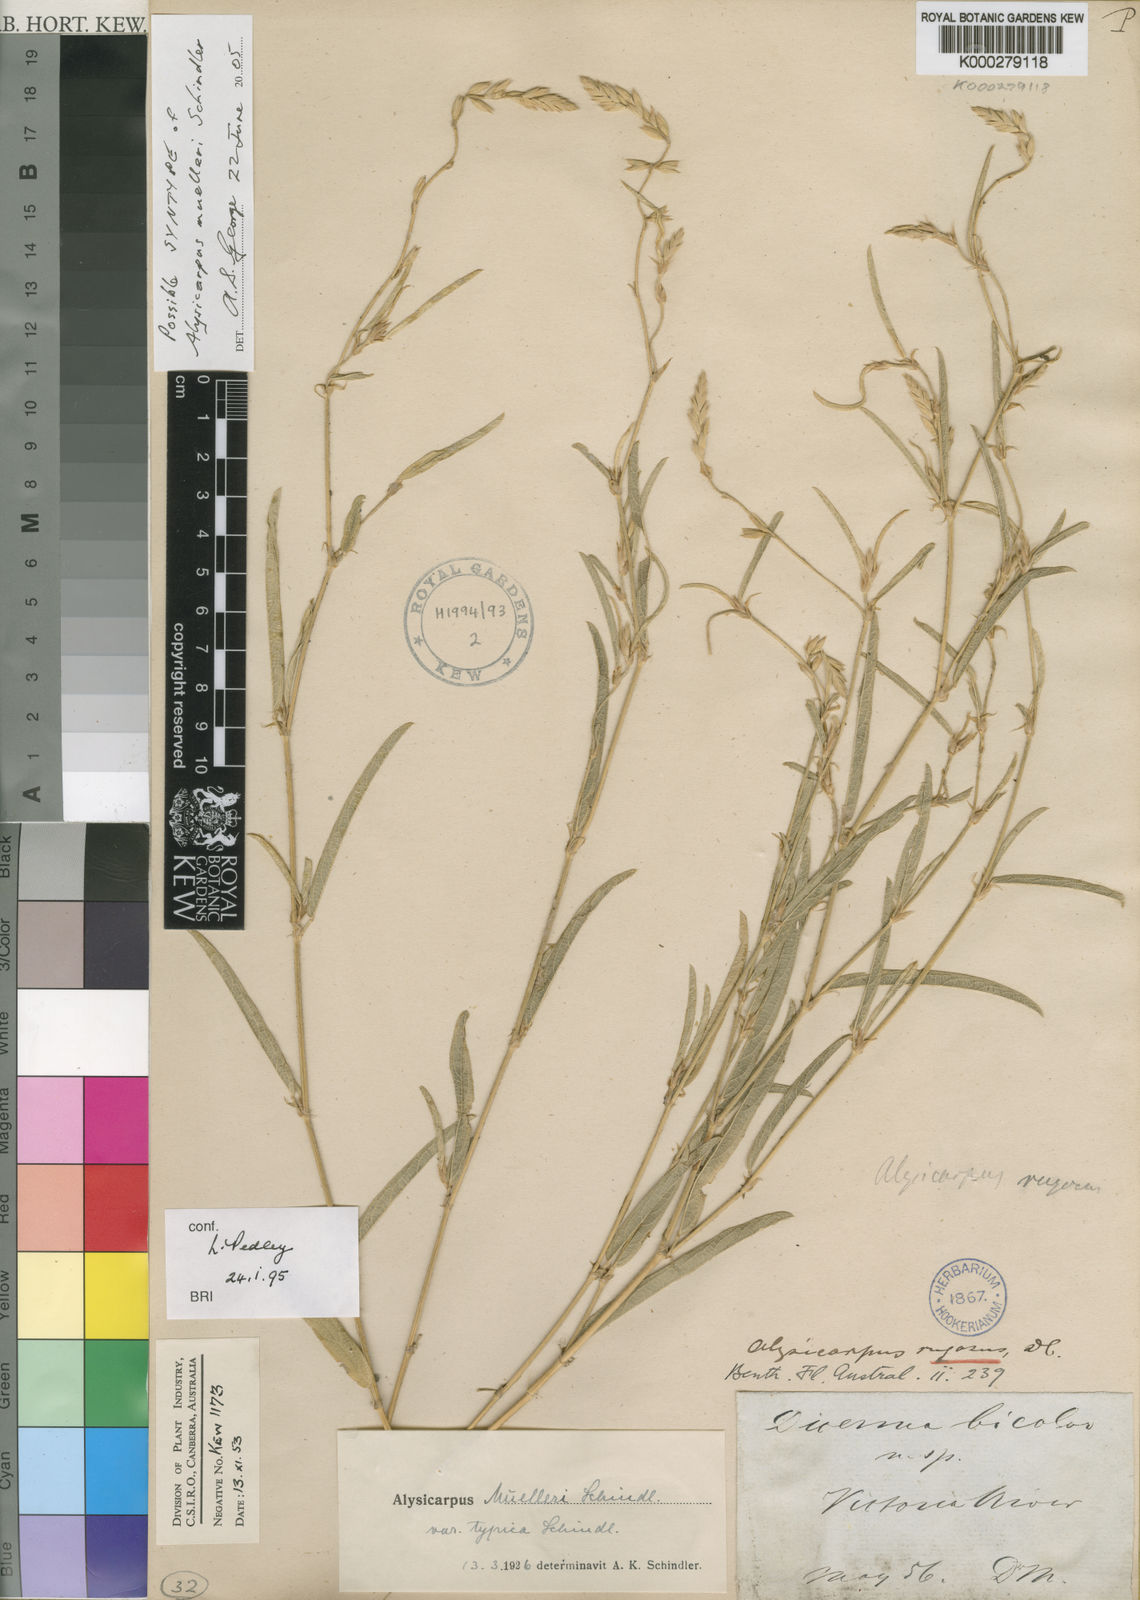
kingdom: Plantae
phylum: Tracheophyta
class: Magnoliopsida
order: Fabales
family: Fabaceae
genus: Alysicarpus
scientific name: Alysicarpus muelleri
